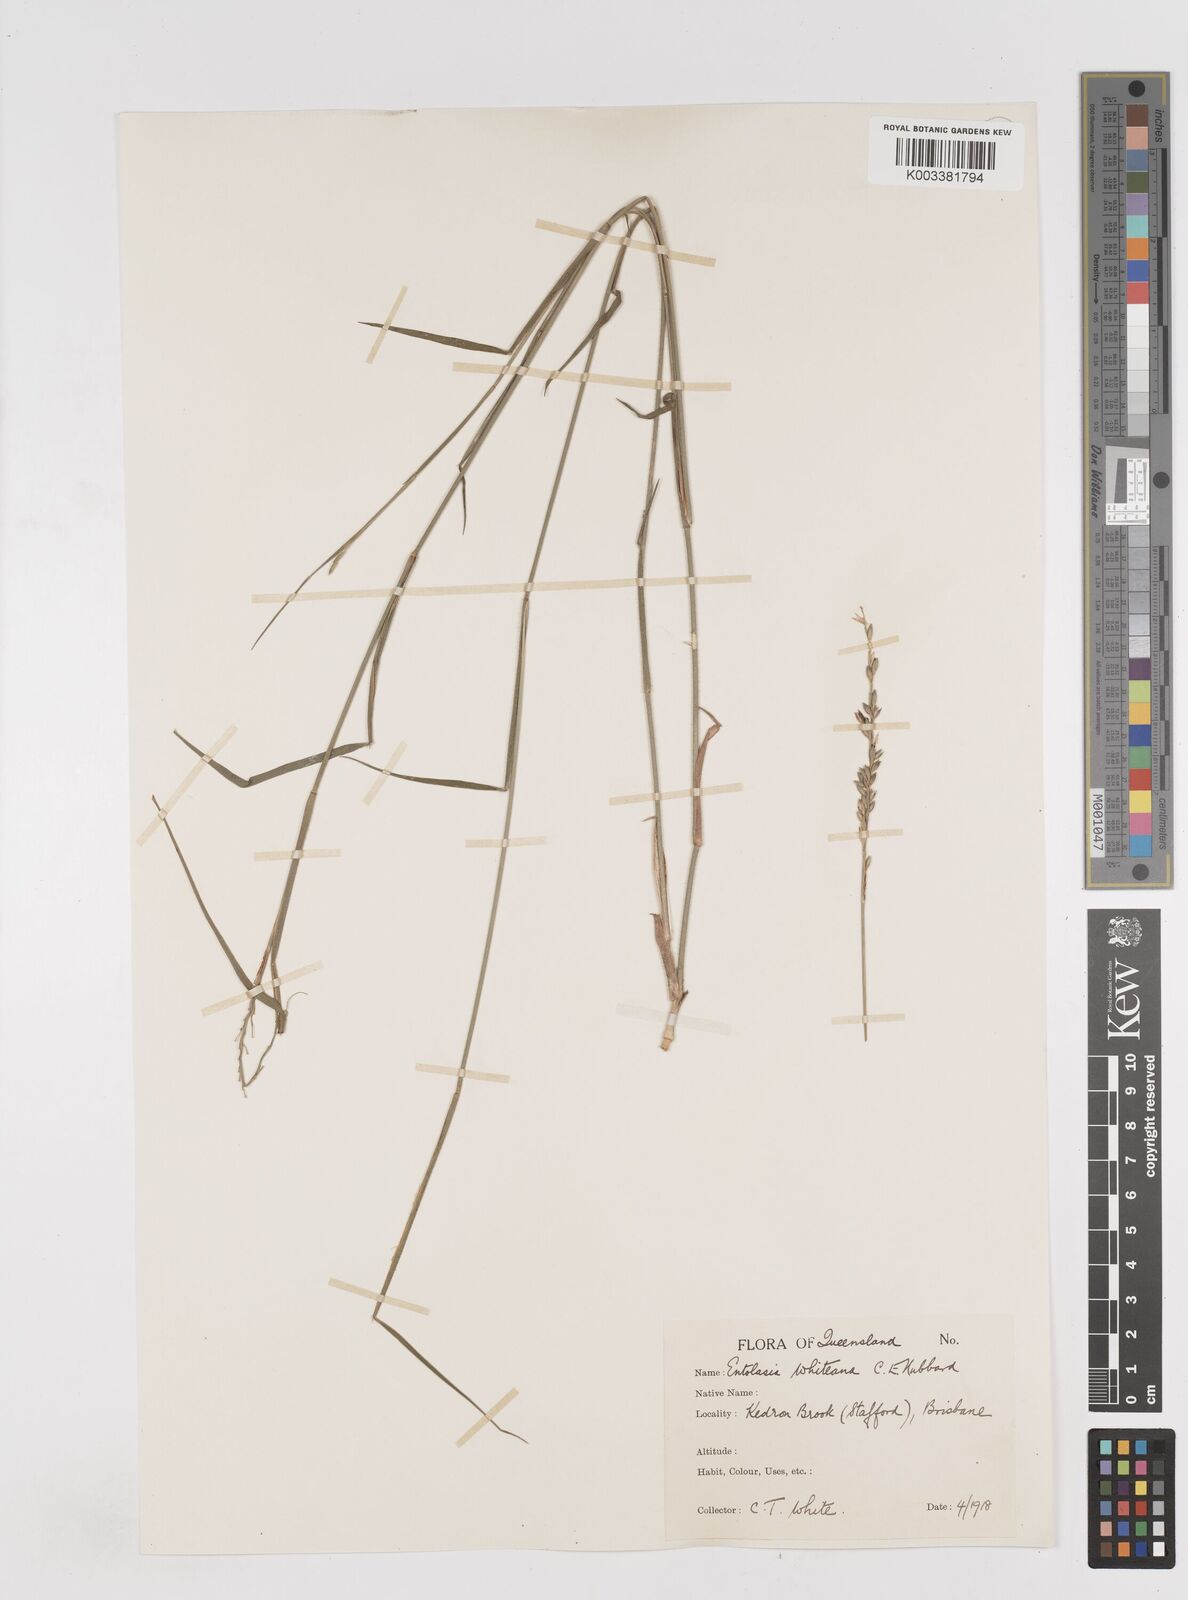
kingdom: Plantae
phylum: Tracheophyta
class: Liliopsida
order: Poales
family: Poaceae
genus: Entolasia
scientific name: Entolasia whiteana
